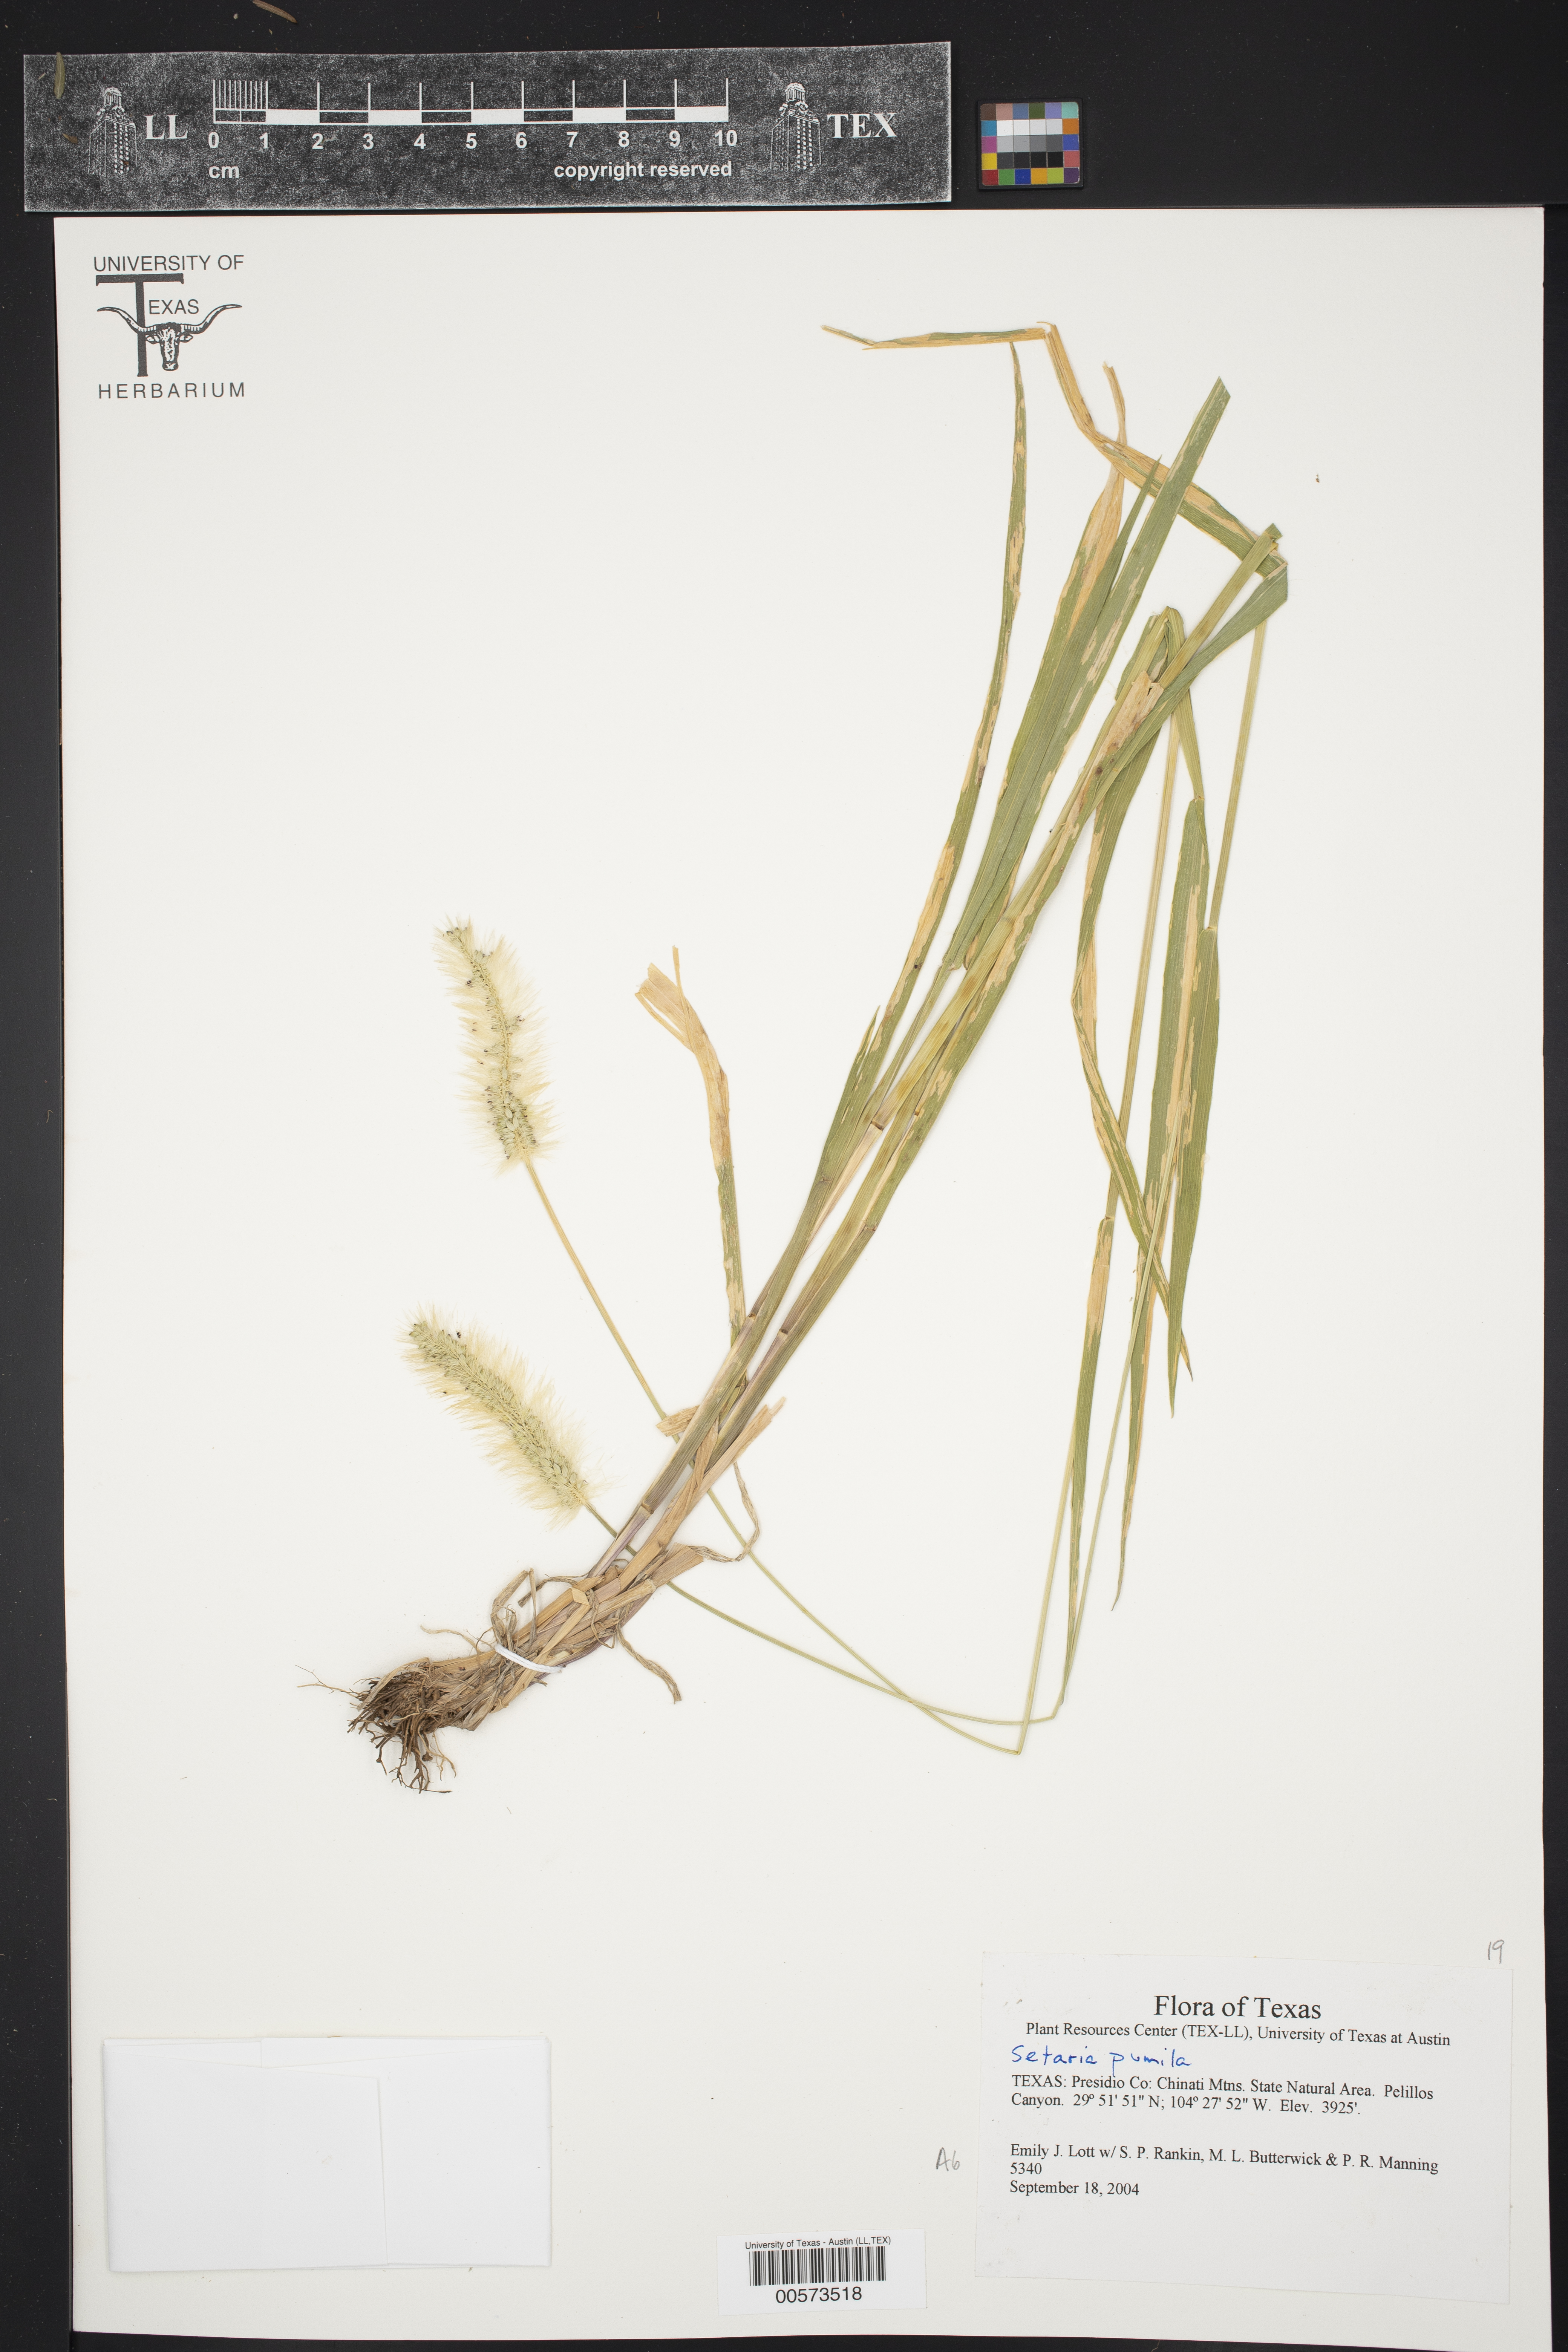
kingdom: Plantae
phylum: Tracheophyta
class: Liliopsida
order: Poales
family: Poaceae
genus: Setaria
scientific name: Setaria pumila
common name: Yellow bristle-grass
